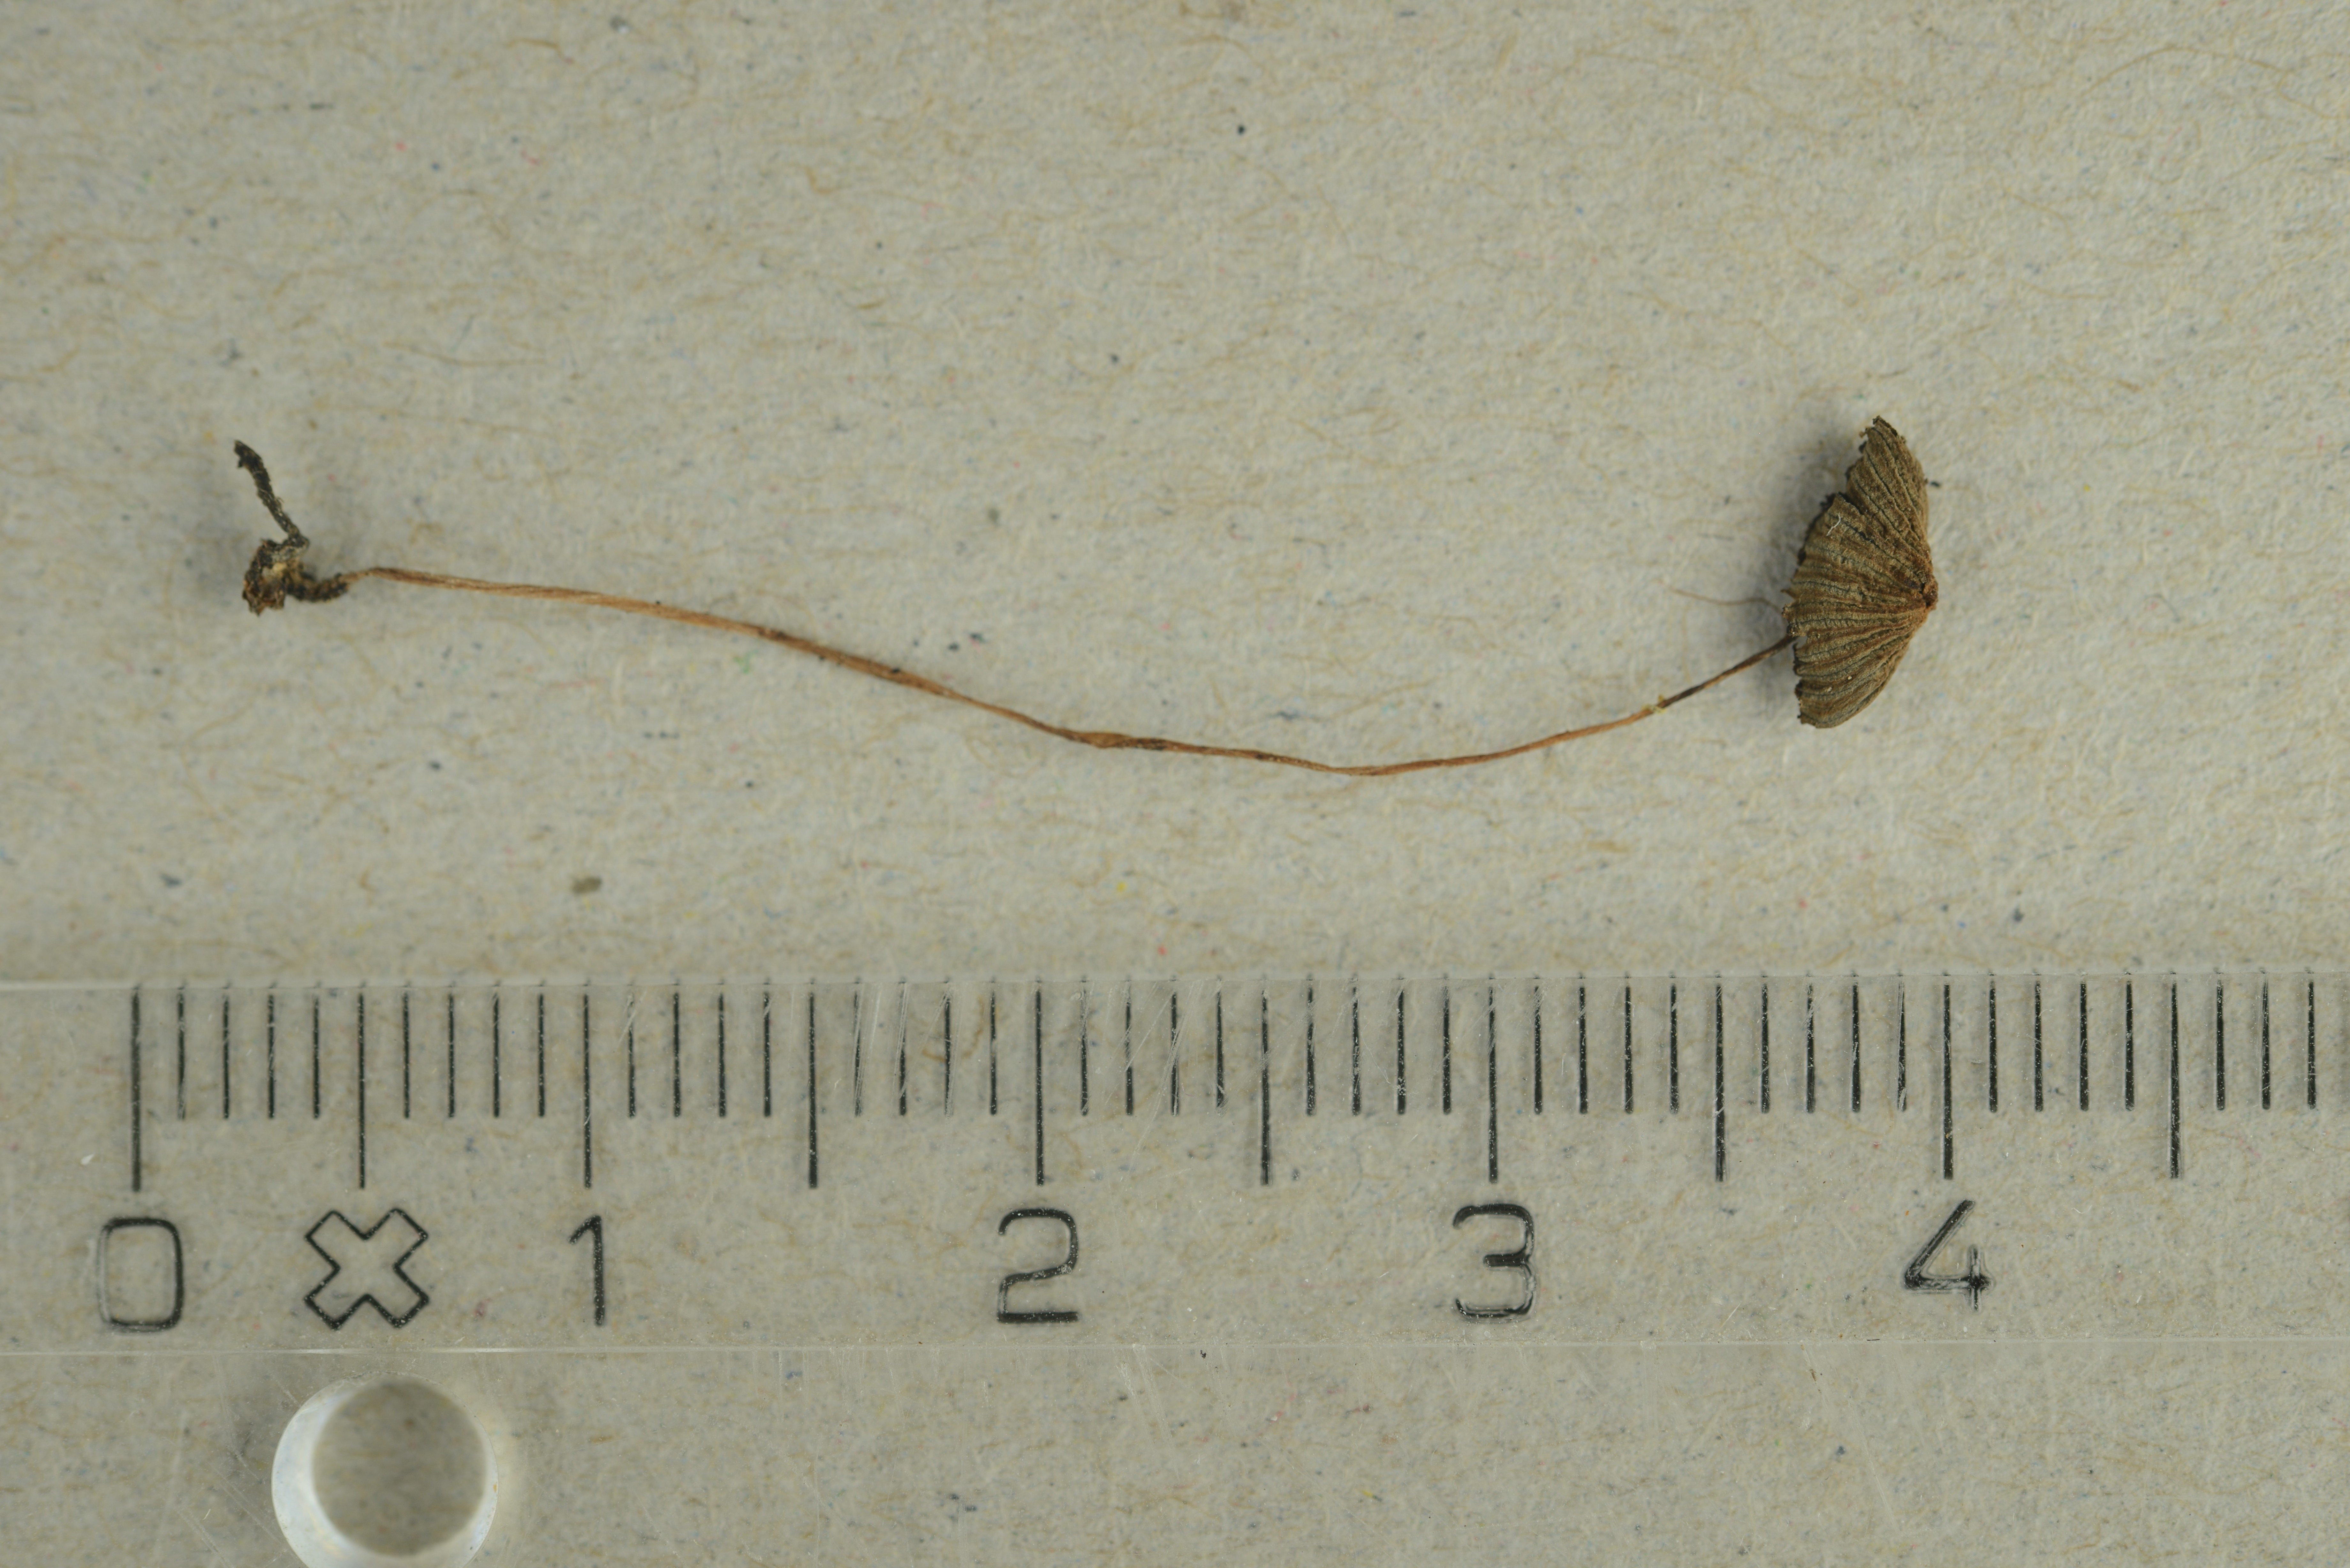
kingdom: Fungi
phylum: Basidiomycota
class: Agaricomycetes
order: Agaricales
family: Psathyrellaceae
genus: Coprinellus
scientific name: Coprinellus aquatilis
